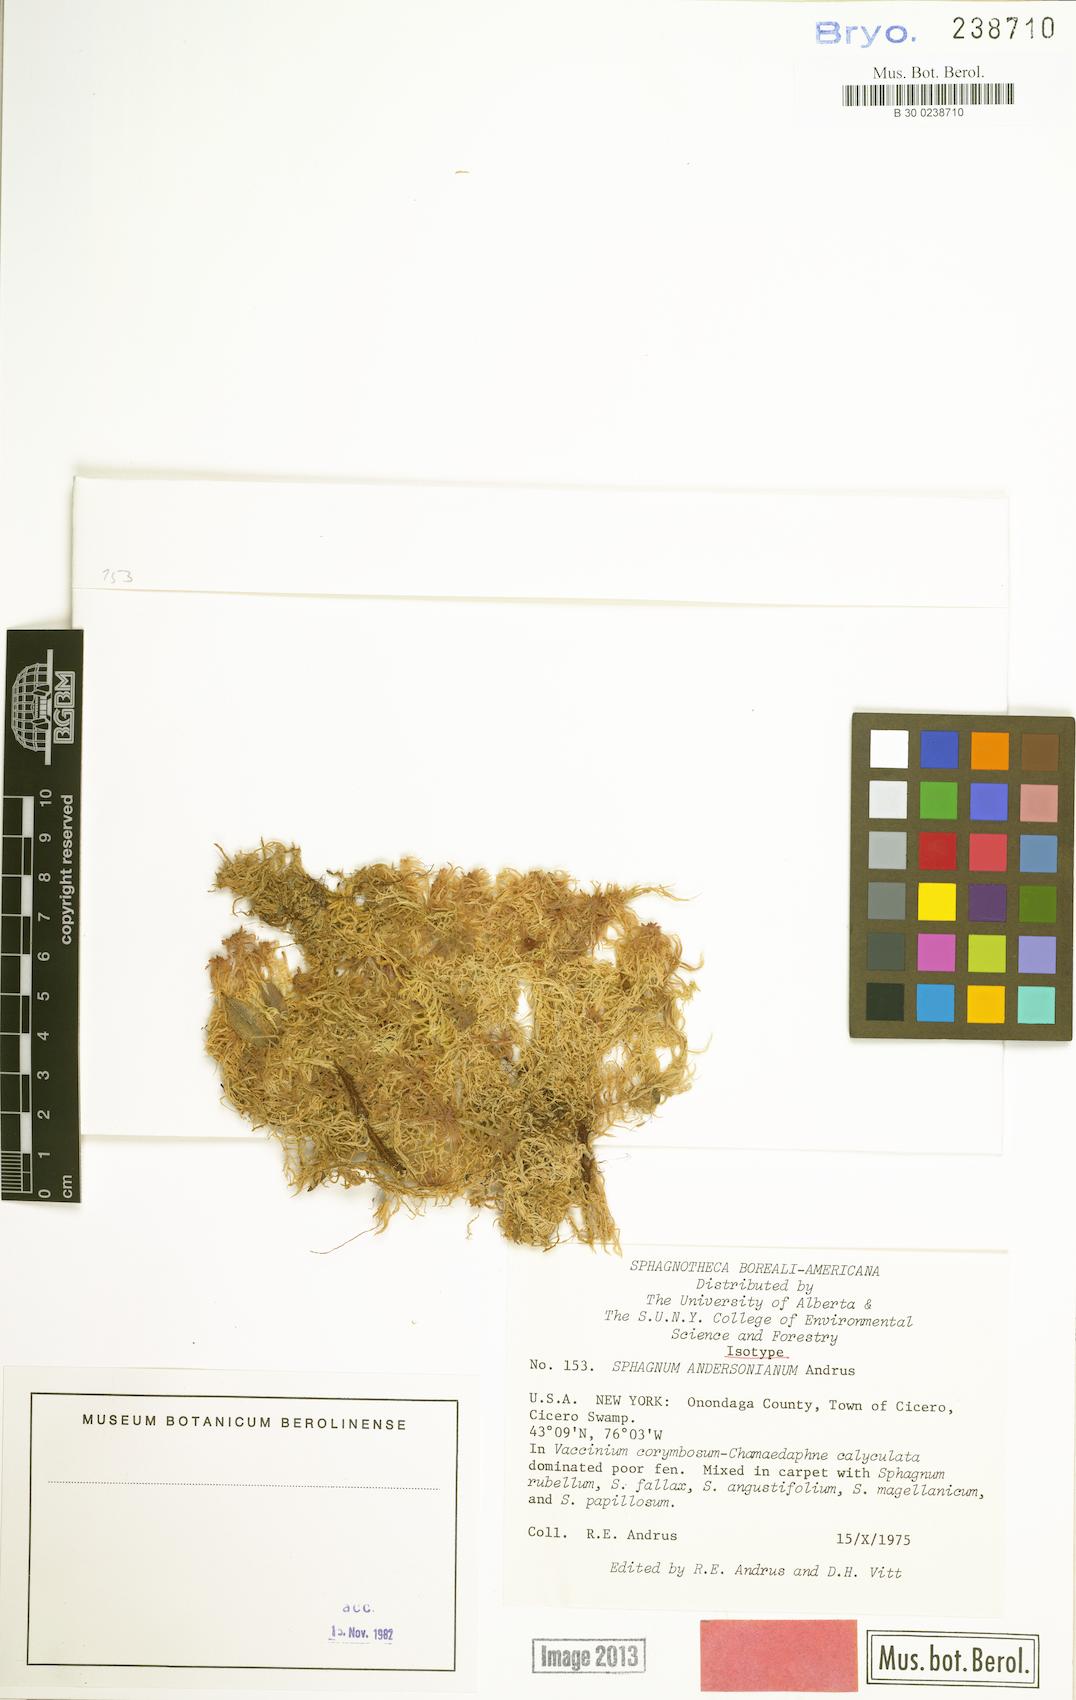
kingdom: Plantae
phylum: Bryophyta
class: Sphagnopsida
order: Sphagnales
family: Sphagnaceae
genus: Sphagnum
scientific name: Sphagnum andersonianum
